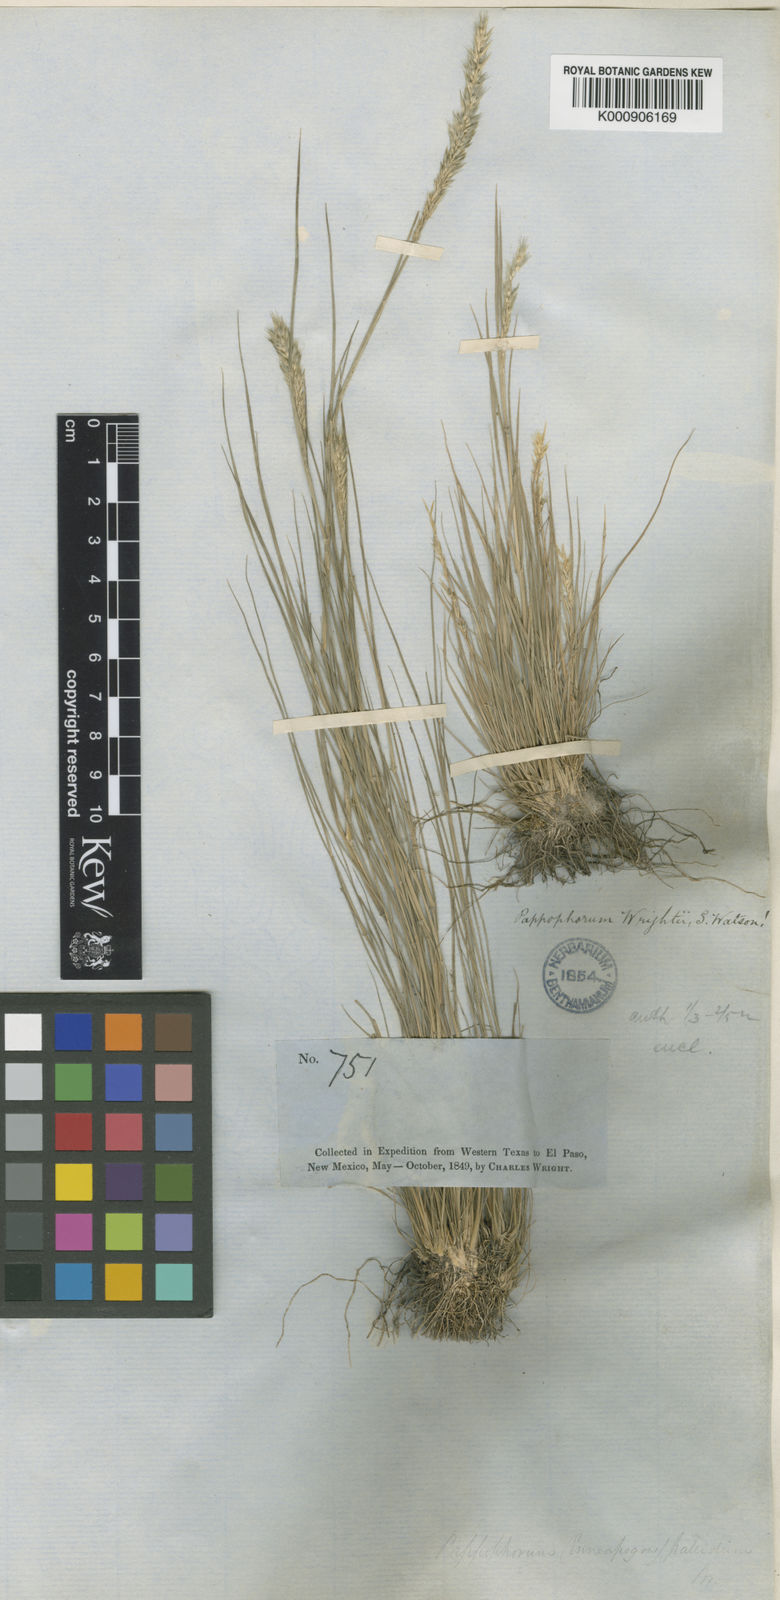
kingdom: Plantae
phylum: Tracheophyta
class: Liliopsida
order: Poales
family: Poaceae
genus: Enneapogon
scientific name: Enneapogon desvauxii
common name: Feather pappus grass
